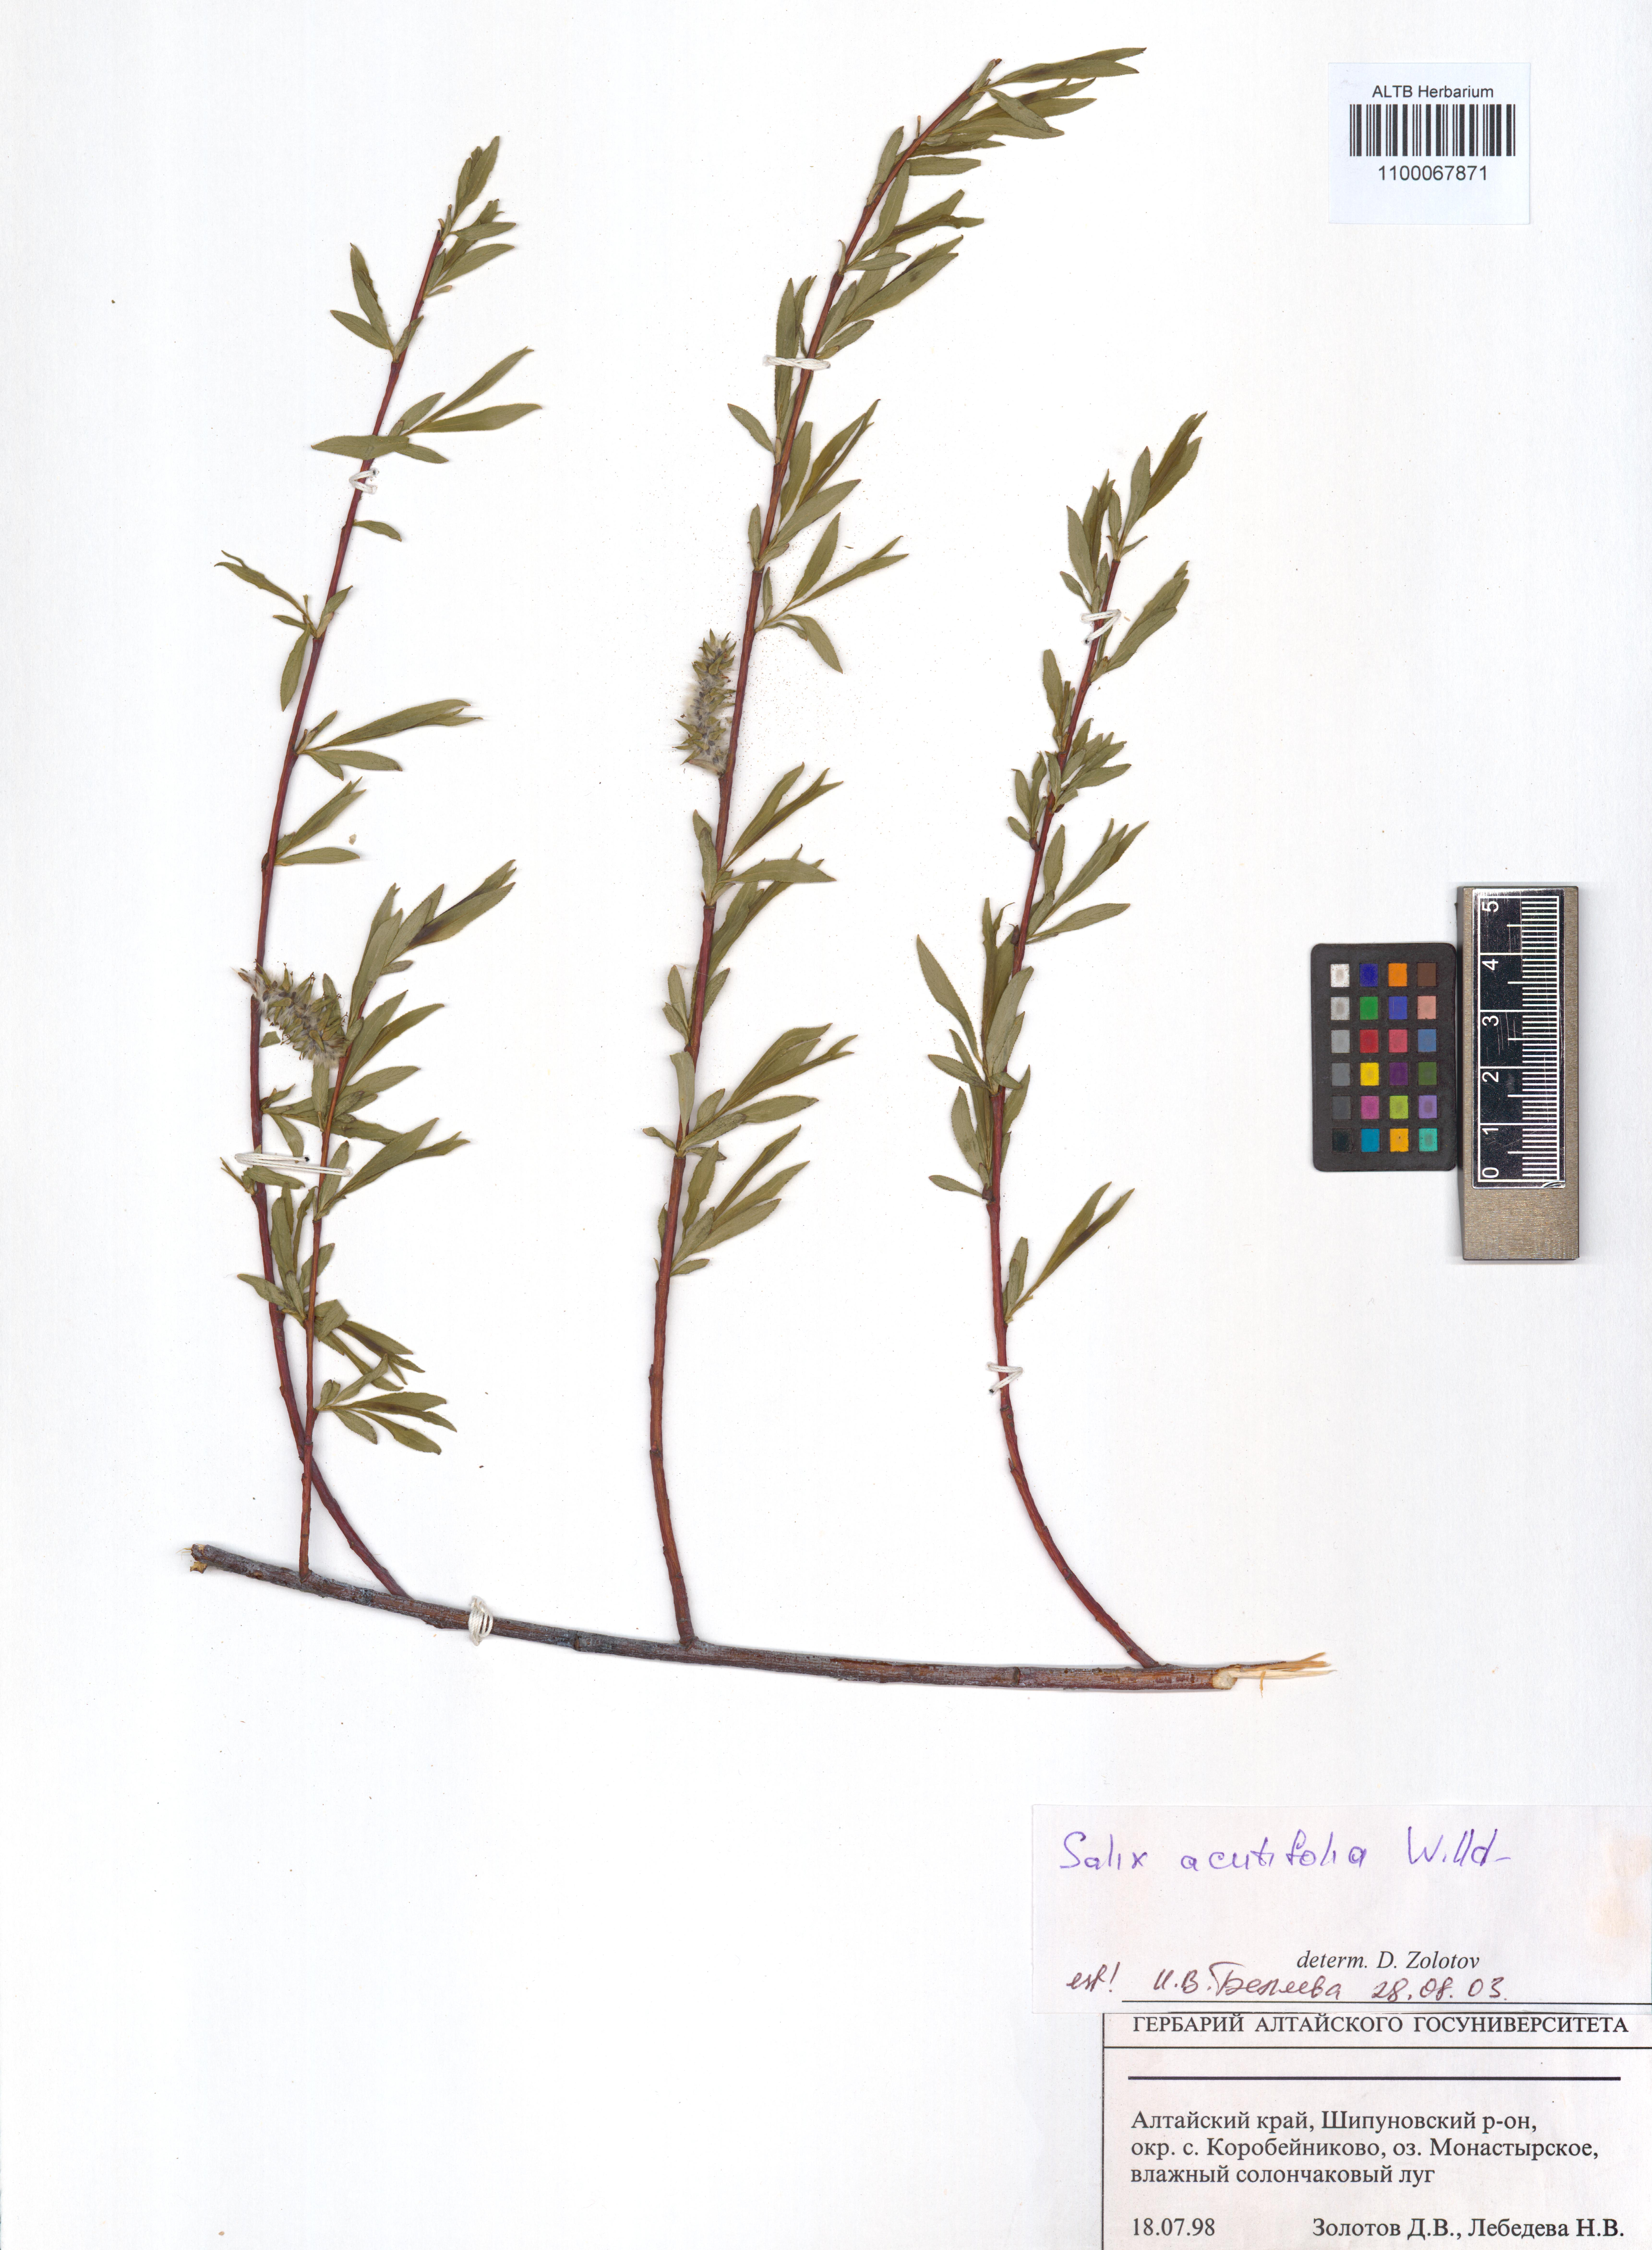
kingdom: Plantae
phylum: Tracheophyta
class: Magnoliopsida
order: Malpighiales
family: Salicaceae
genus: Salix
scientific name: Salix acutifolia
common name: Siberian violet-willow
